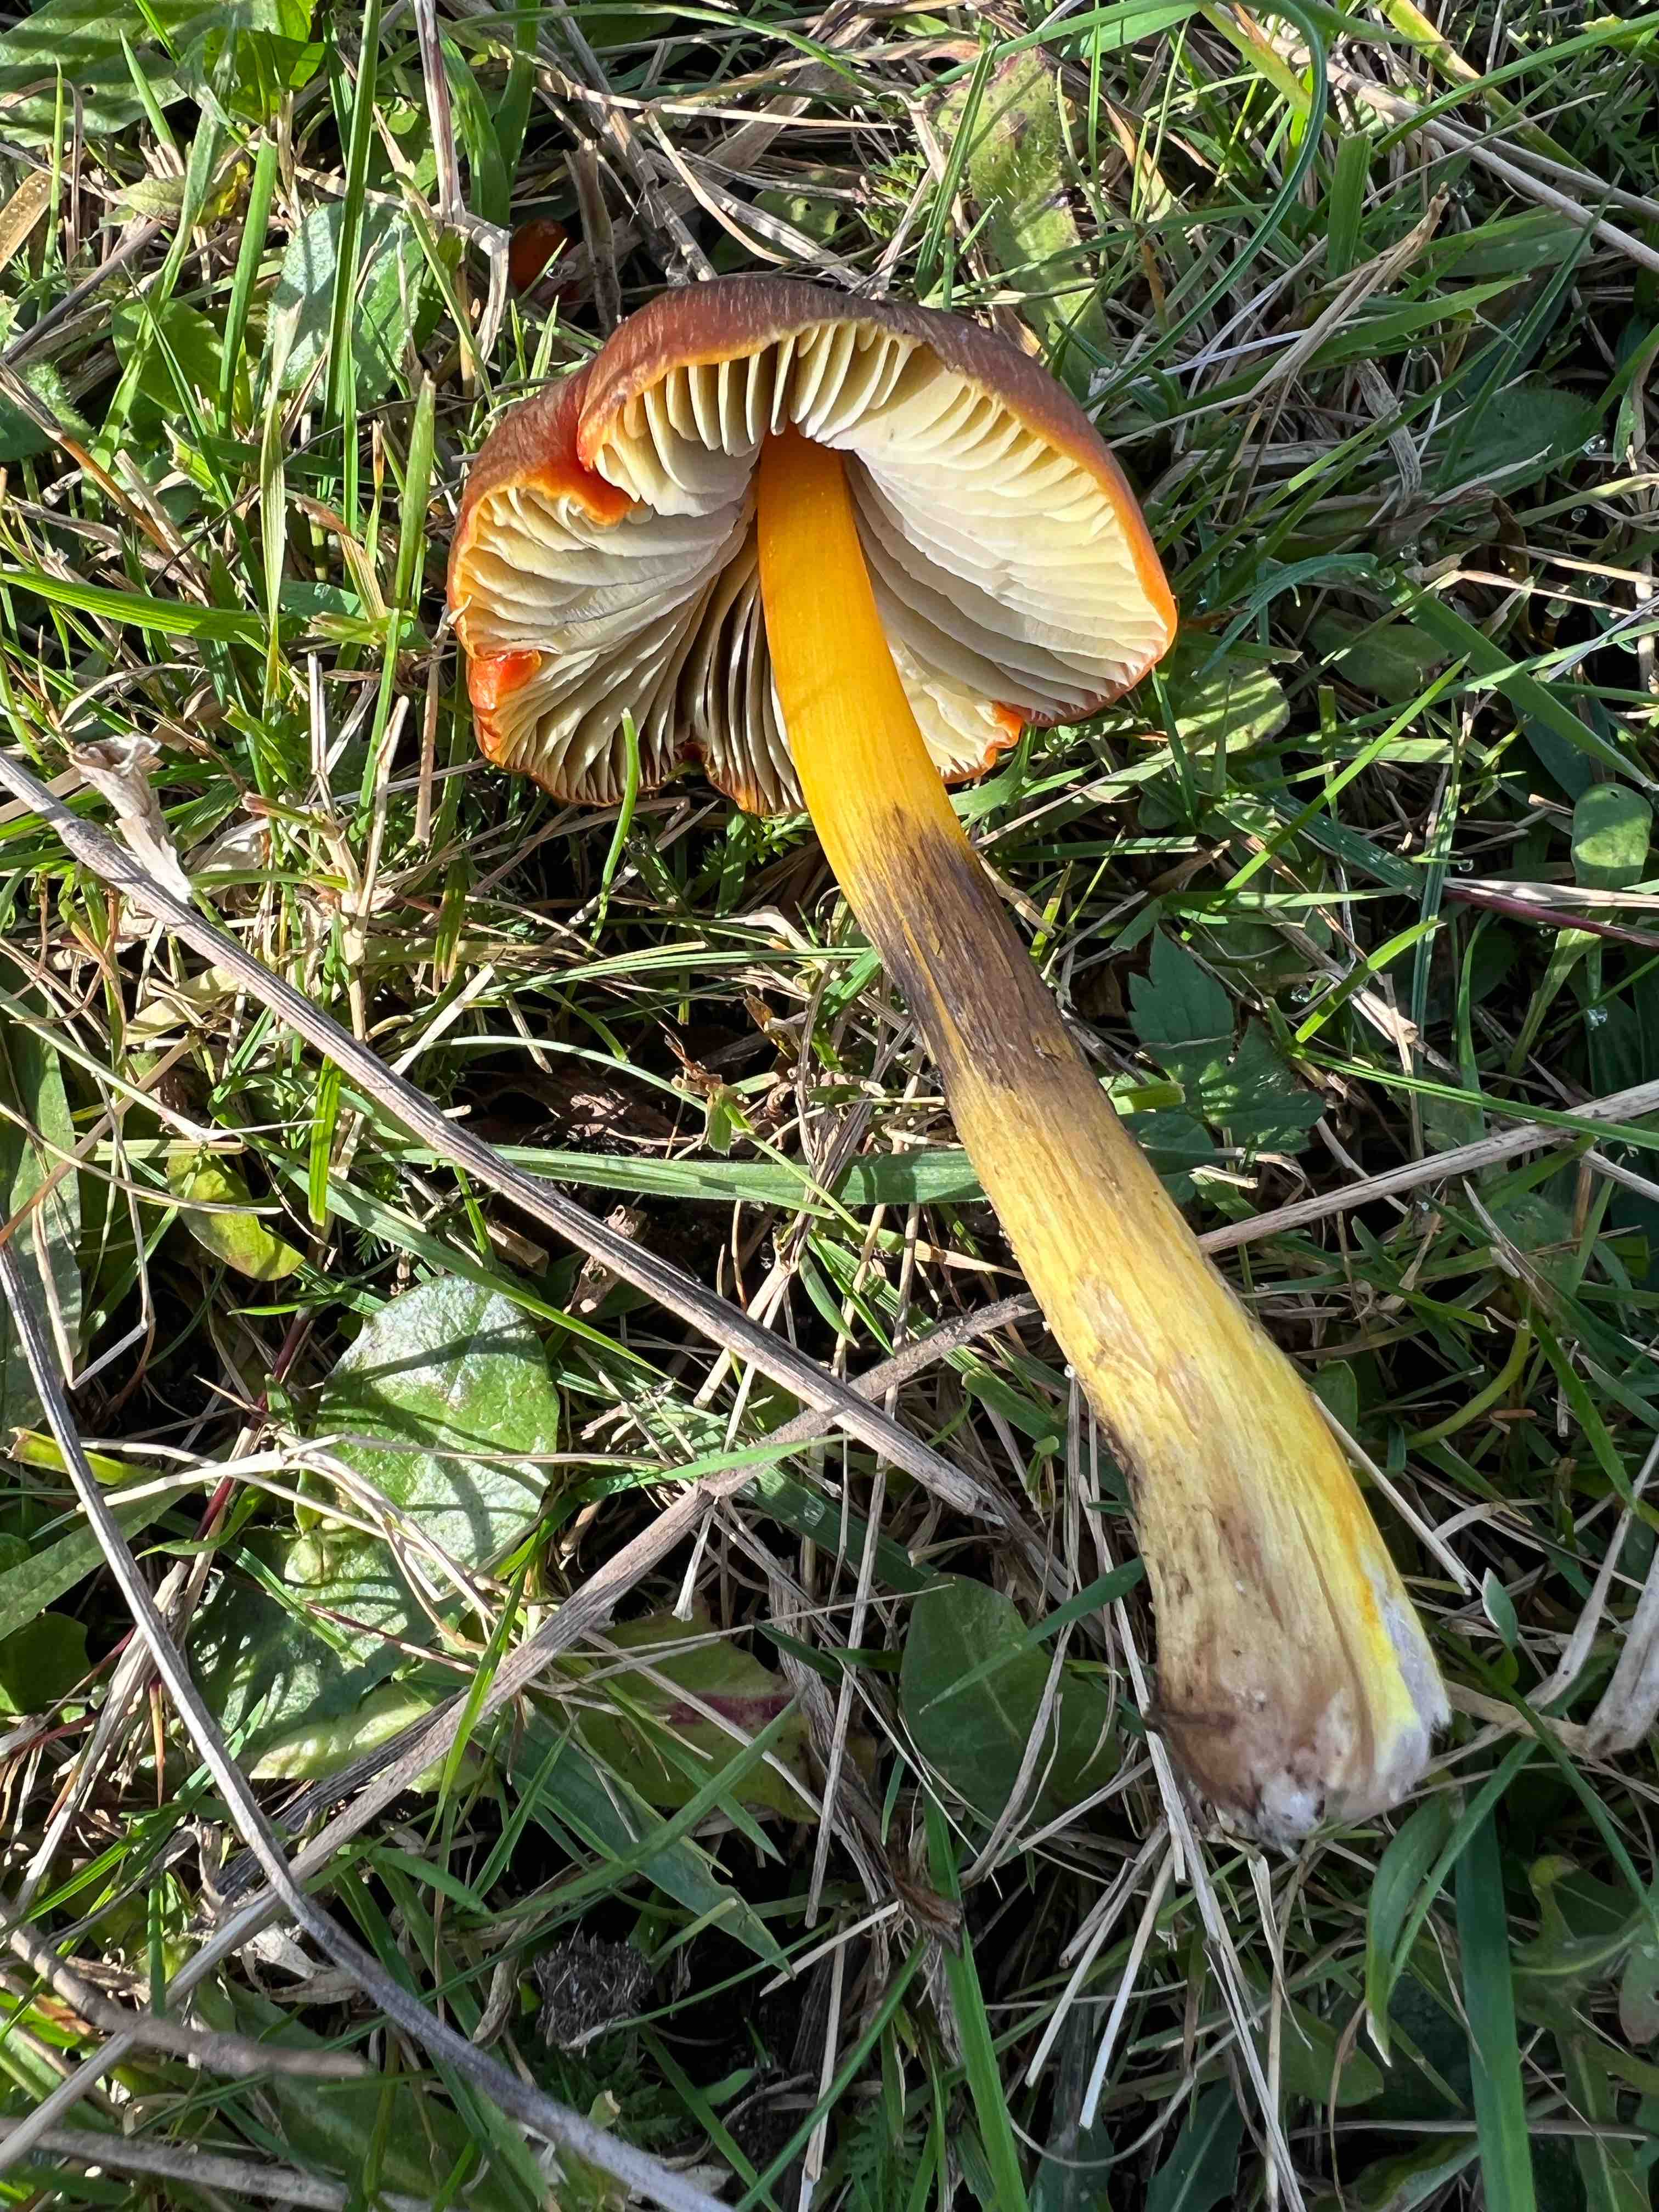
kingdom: Fungi
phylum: Basidiomycota
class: Agaricomycetes
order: Agaricales
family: Hygrophoraceae
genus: Hygrocybe
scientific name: Hygrocybe conica
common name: kegle-vokshat
